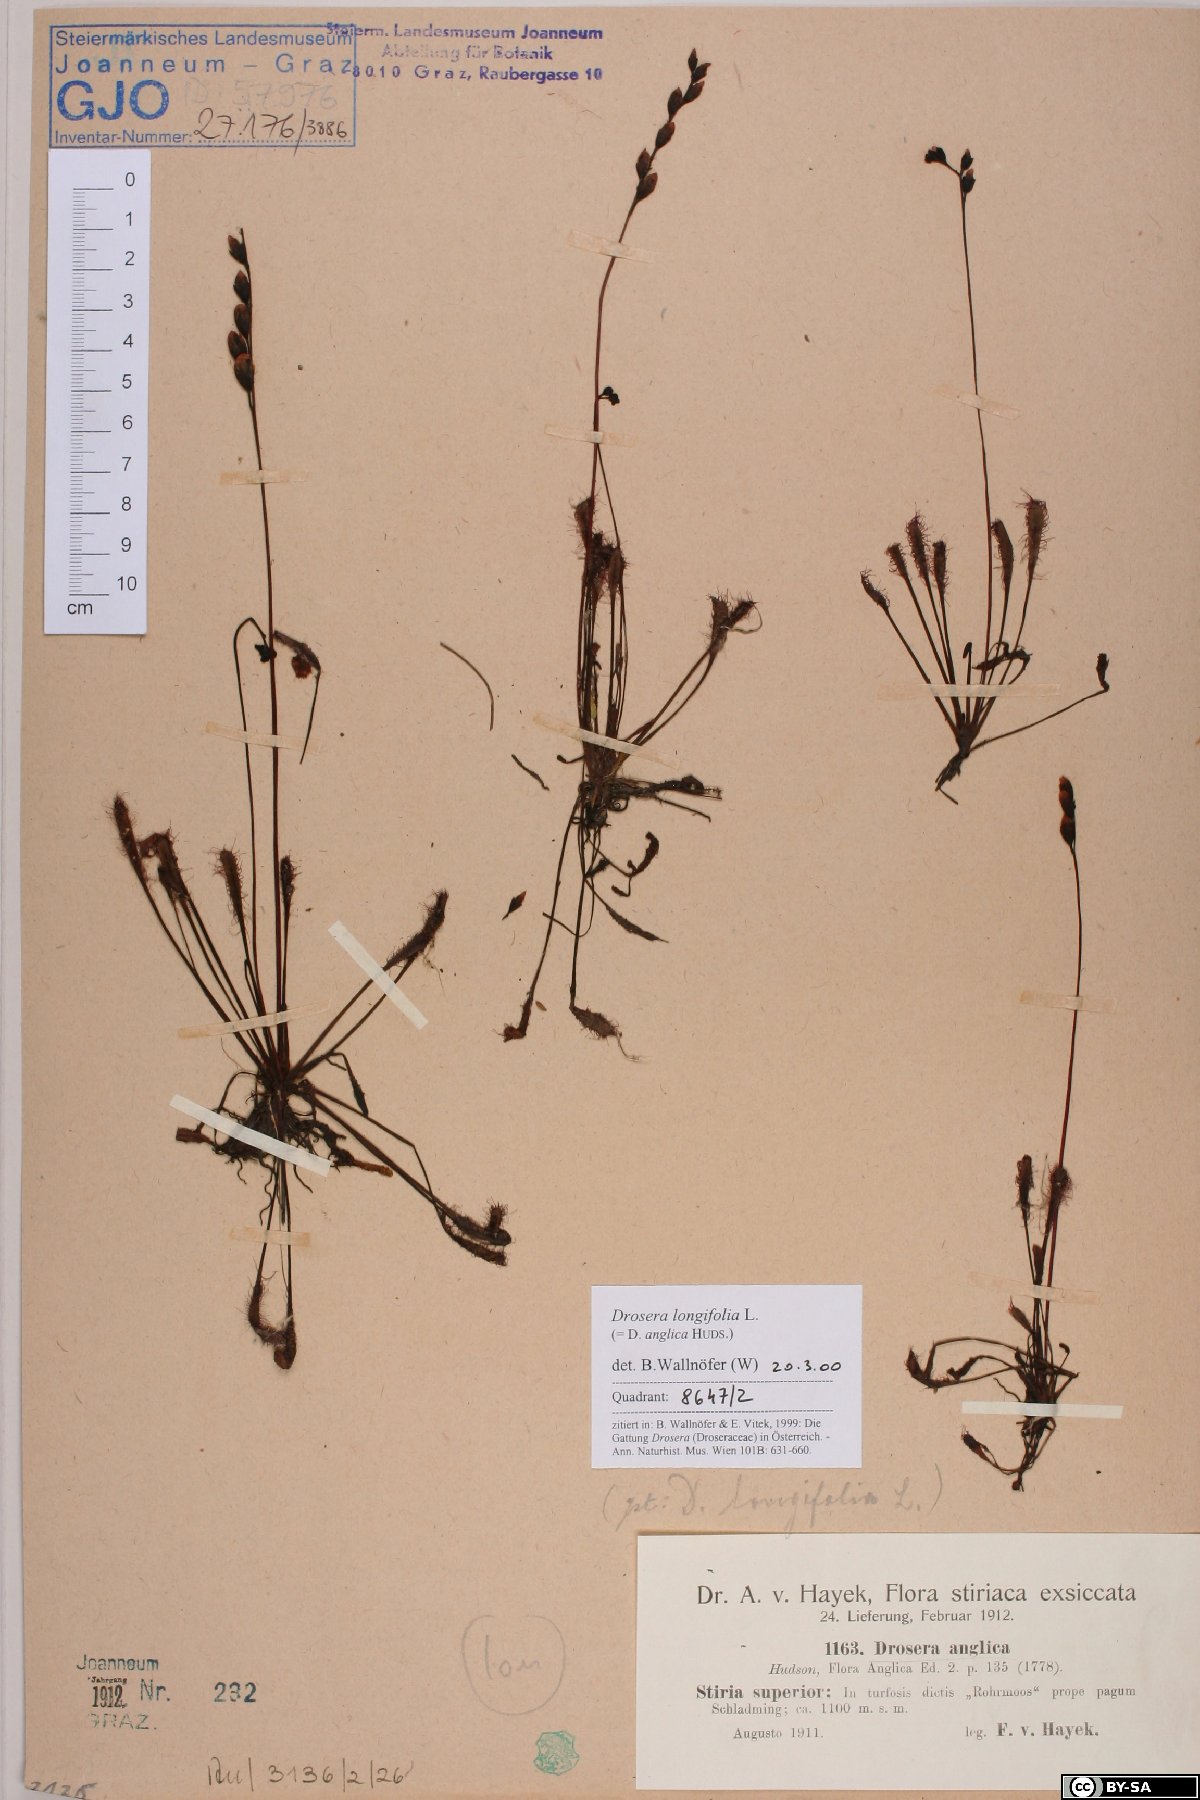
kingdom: Plantae
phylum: Tracheophyta
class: Magnoliopsida
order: Caryophyllales
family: Droseraceae
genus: Drosera
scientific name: Drosera anglica
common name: Great sundew
